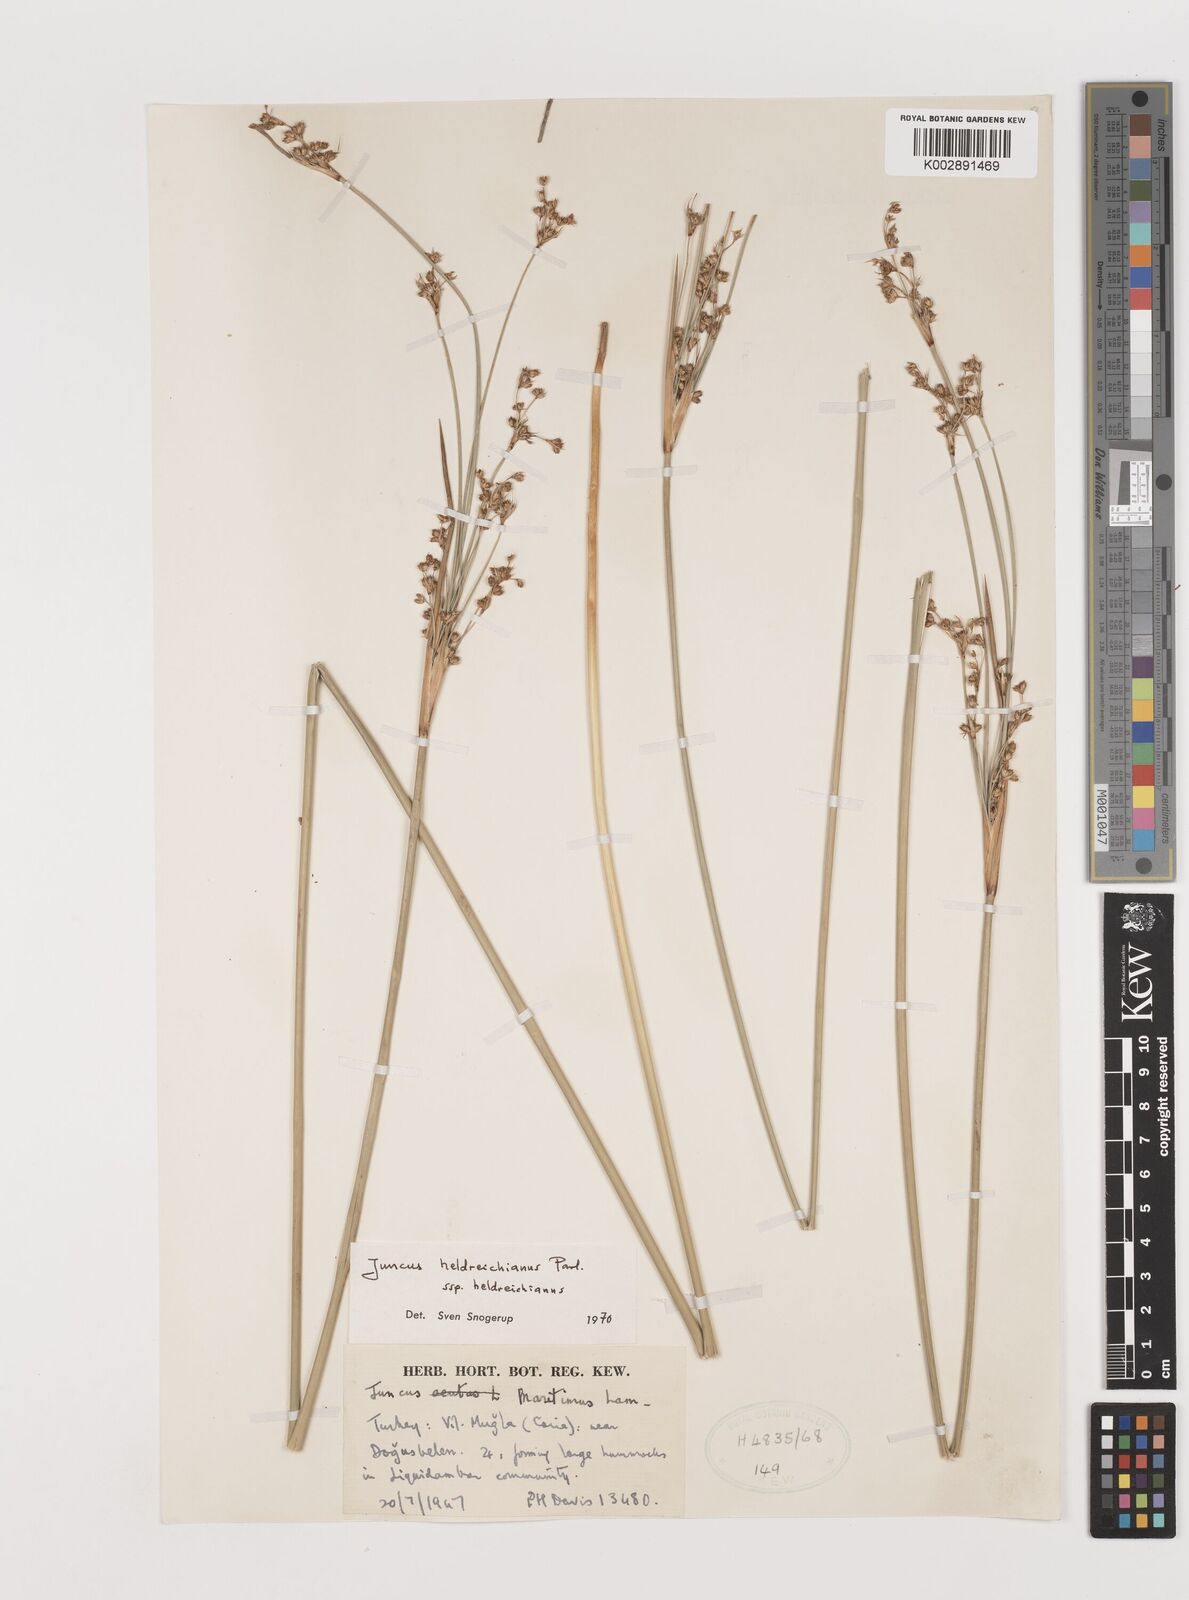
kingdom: Plantae
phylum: Tracheophyta
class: Liliopsida
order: Poales
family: Juncaceae
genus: Juncus
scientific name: Juncus heldreichianus
